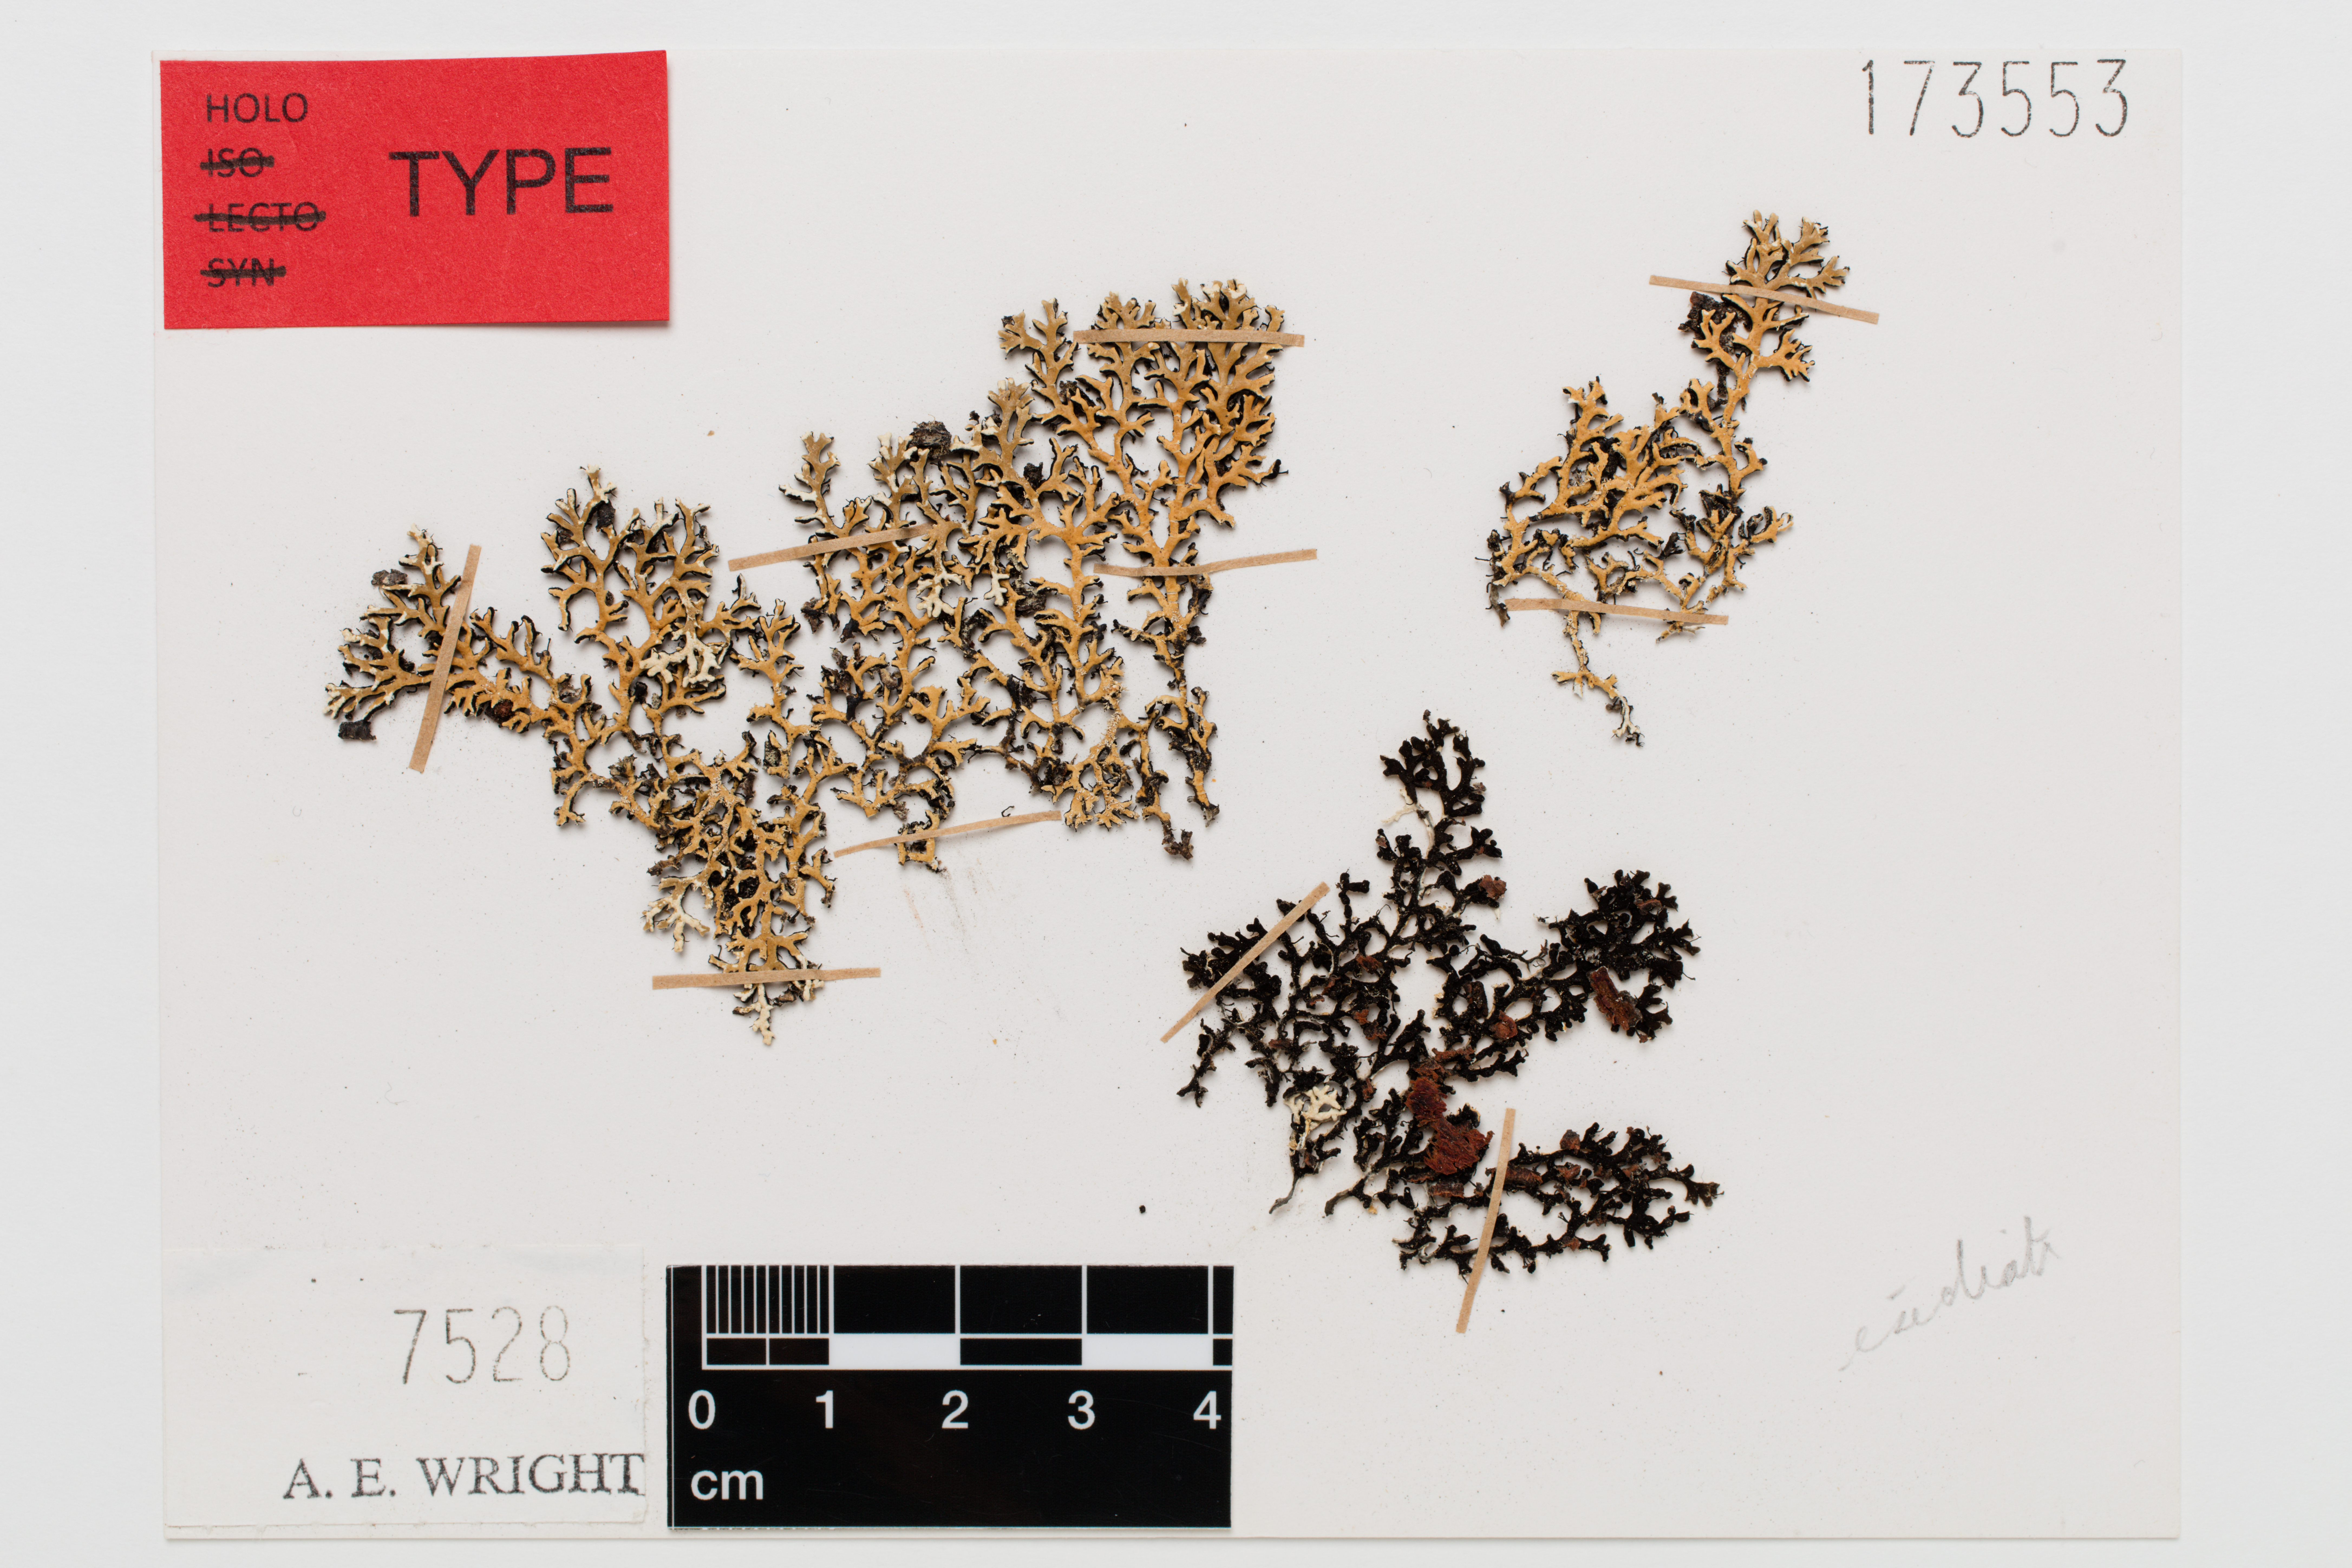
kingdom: Fungi
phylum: Ascomycota
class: Lecanoromycetes
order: Lecanorales
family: Parmeliaceae
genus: Anzia
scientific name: Anzia
